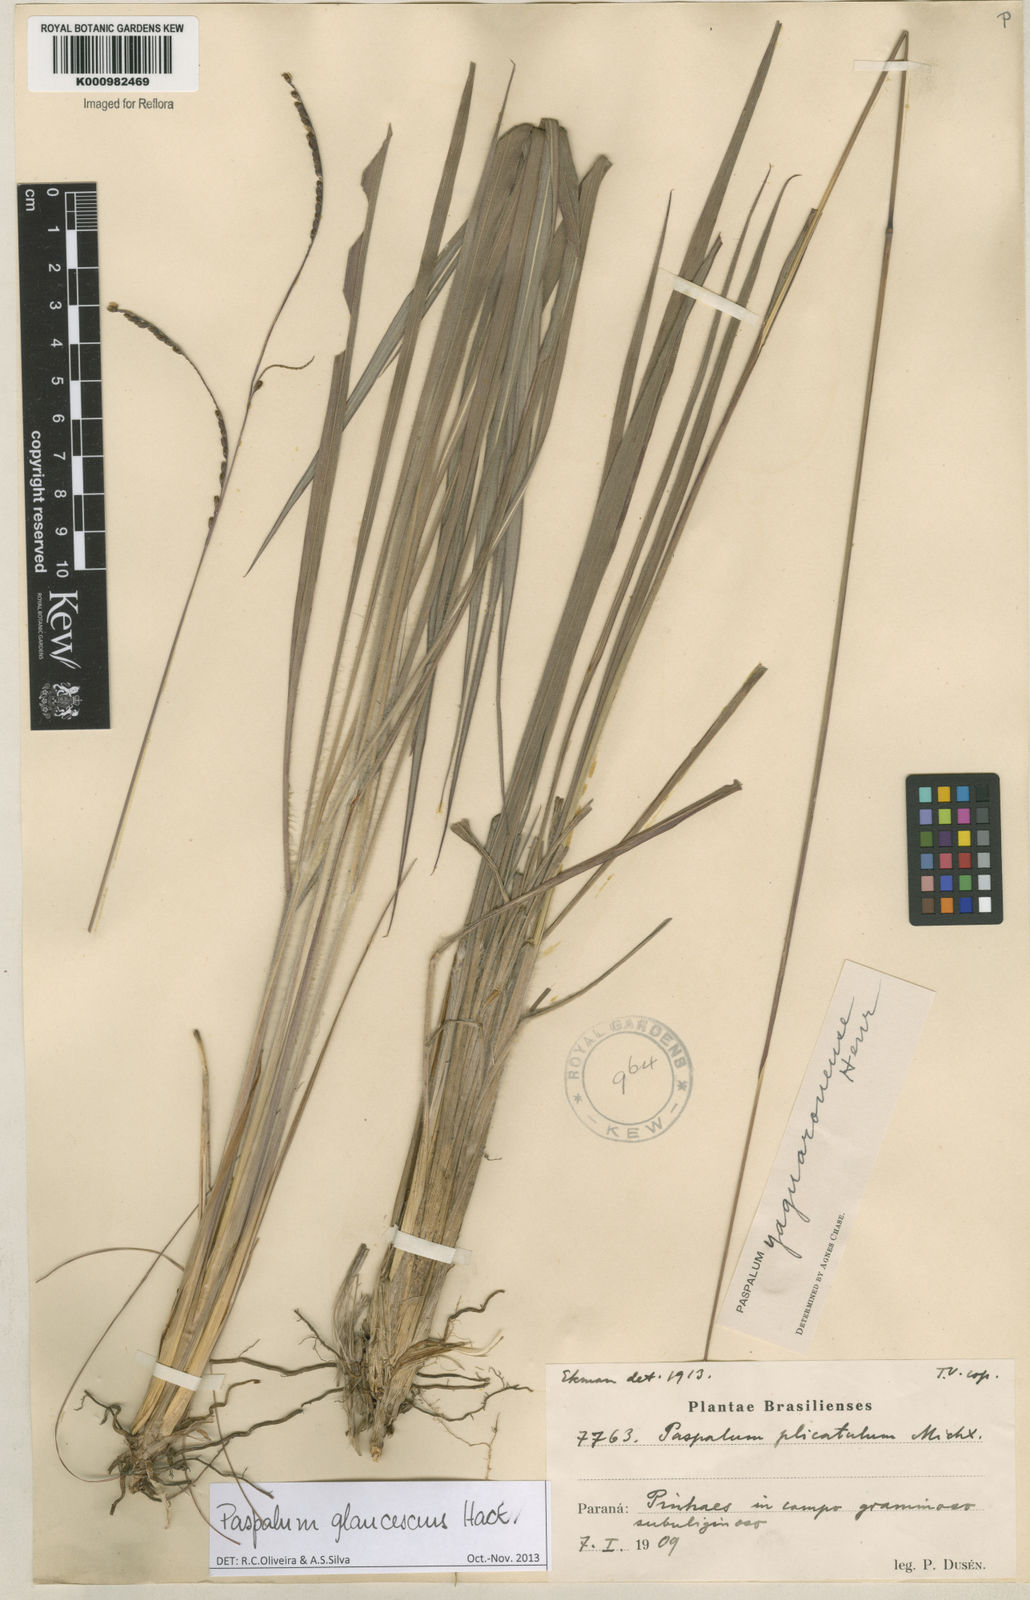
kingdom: Plantae
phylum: Tracheophyta
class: Liliopsida
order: Poales
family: Poaceae
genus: Paspalum
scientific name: Paspalum glaucescens
